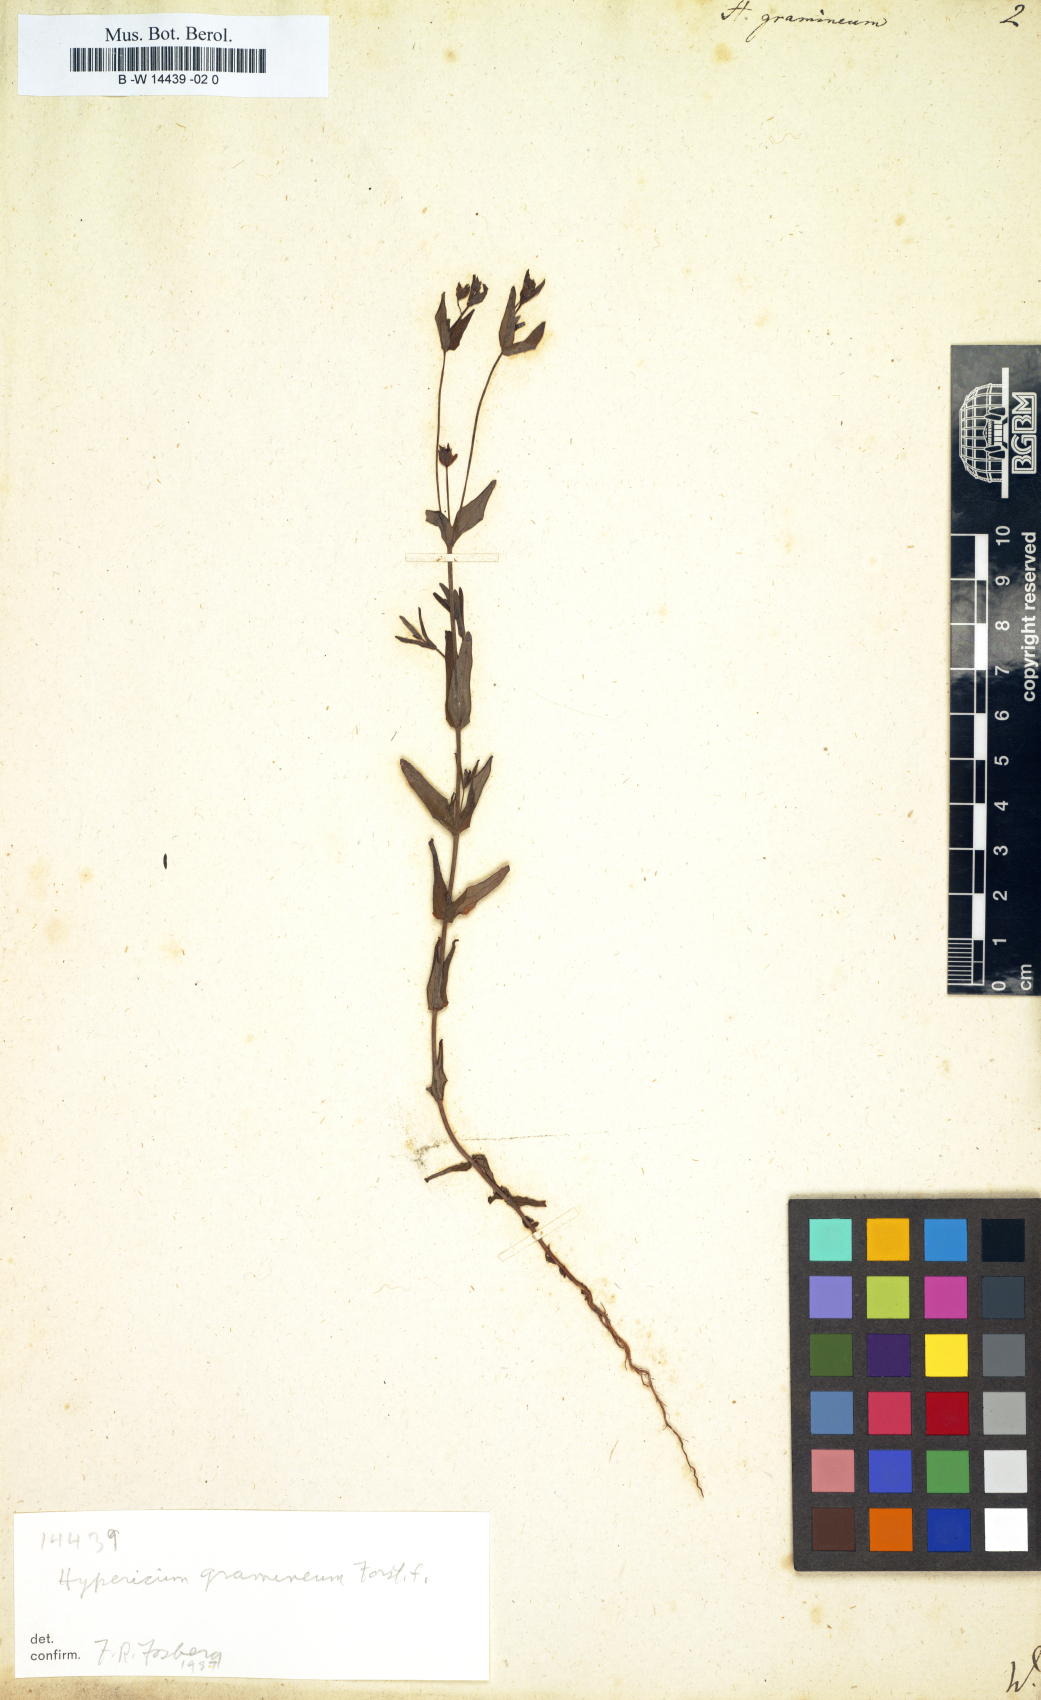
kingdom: Plantae
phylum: Tracheophyta
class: Magnoliopsida
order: Malpighiales
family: Hypericaceae
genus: Hypericum
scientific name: Hypericum gramineum
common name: Grassy st. johnswort
